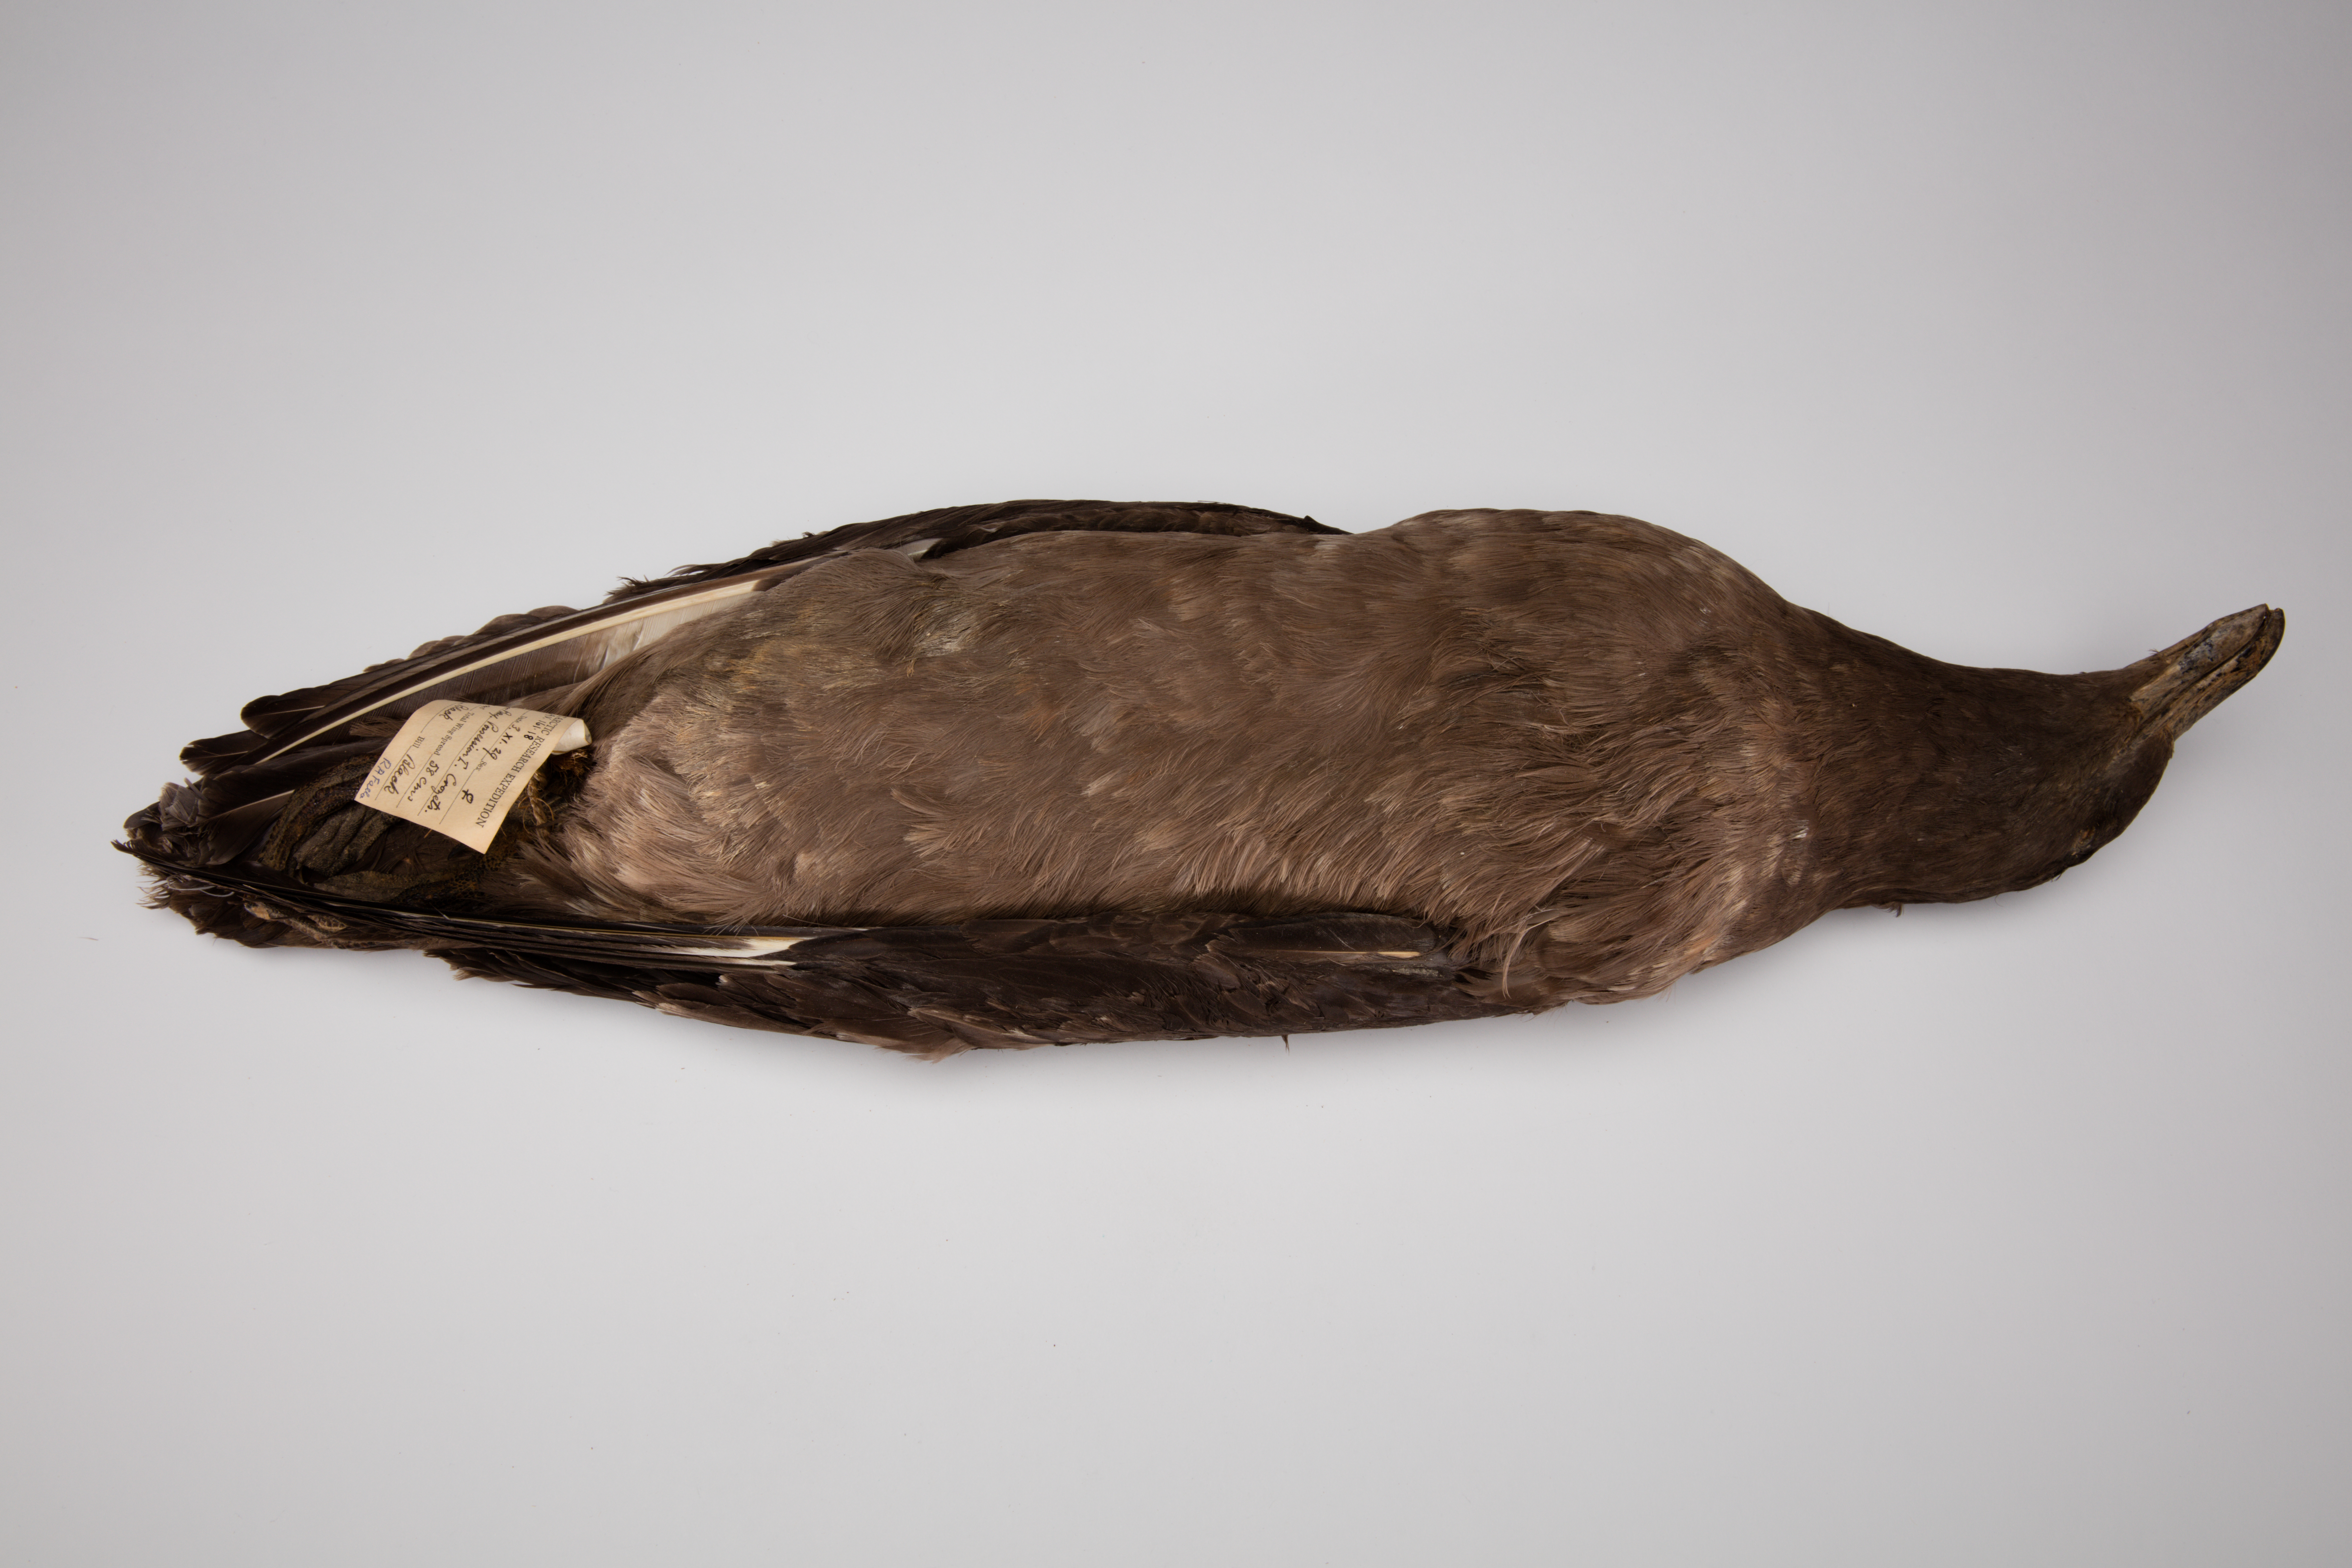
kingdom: Animalia
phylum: Chordata
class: Aves
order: Charadriiformes
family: Stercorariidae
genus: Stercorarius
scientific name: Stercorarius antarcticus
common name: Brown skua
